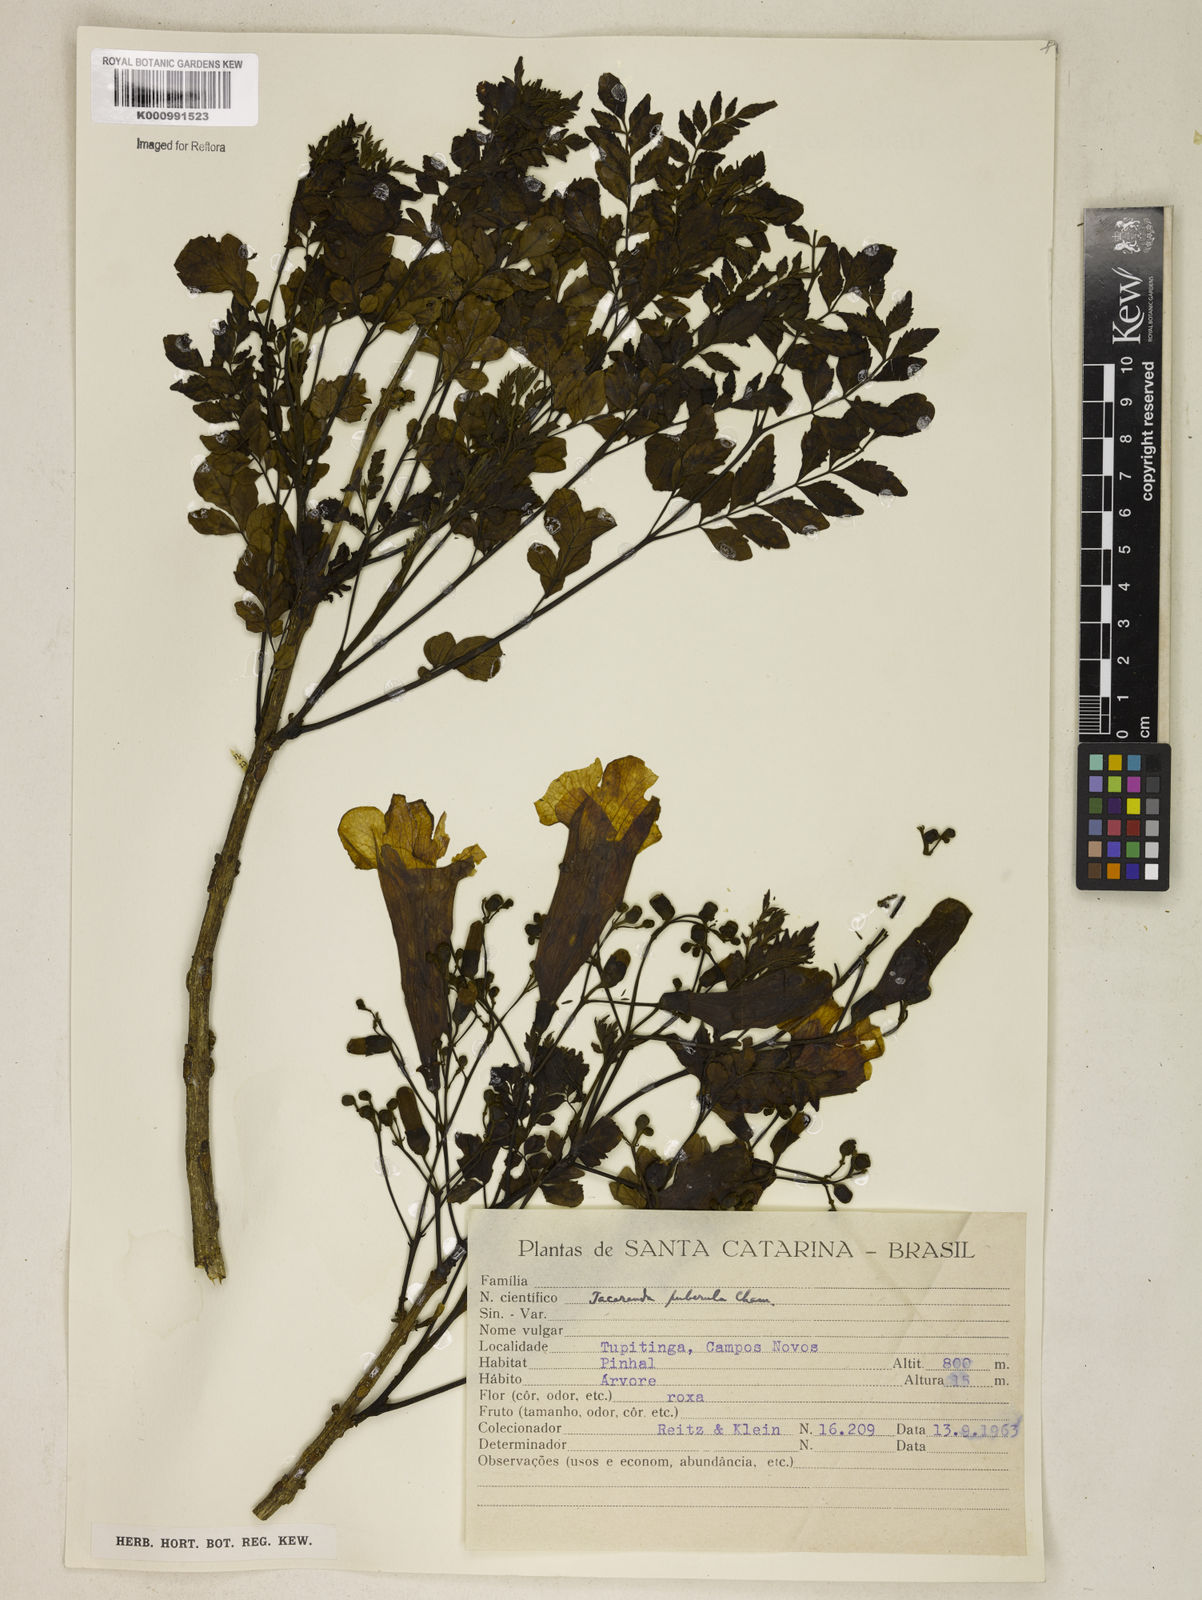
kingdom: Plantae
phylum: Tracheophyta
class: Magnoliopsida
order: Lamiales
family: Bignoniaceae
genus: Jacaranda
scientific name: Jacaranda puberula
